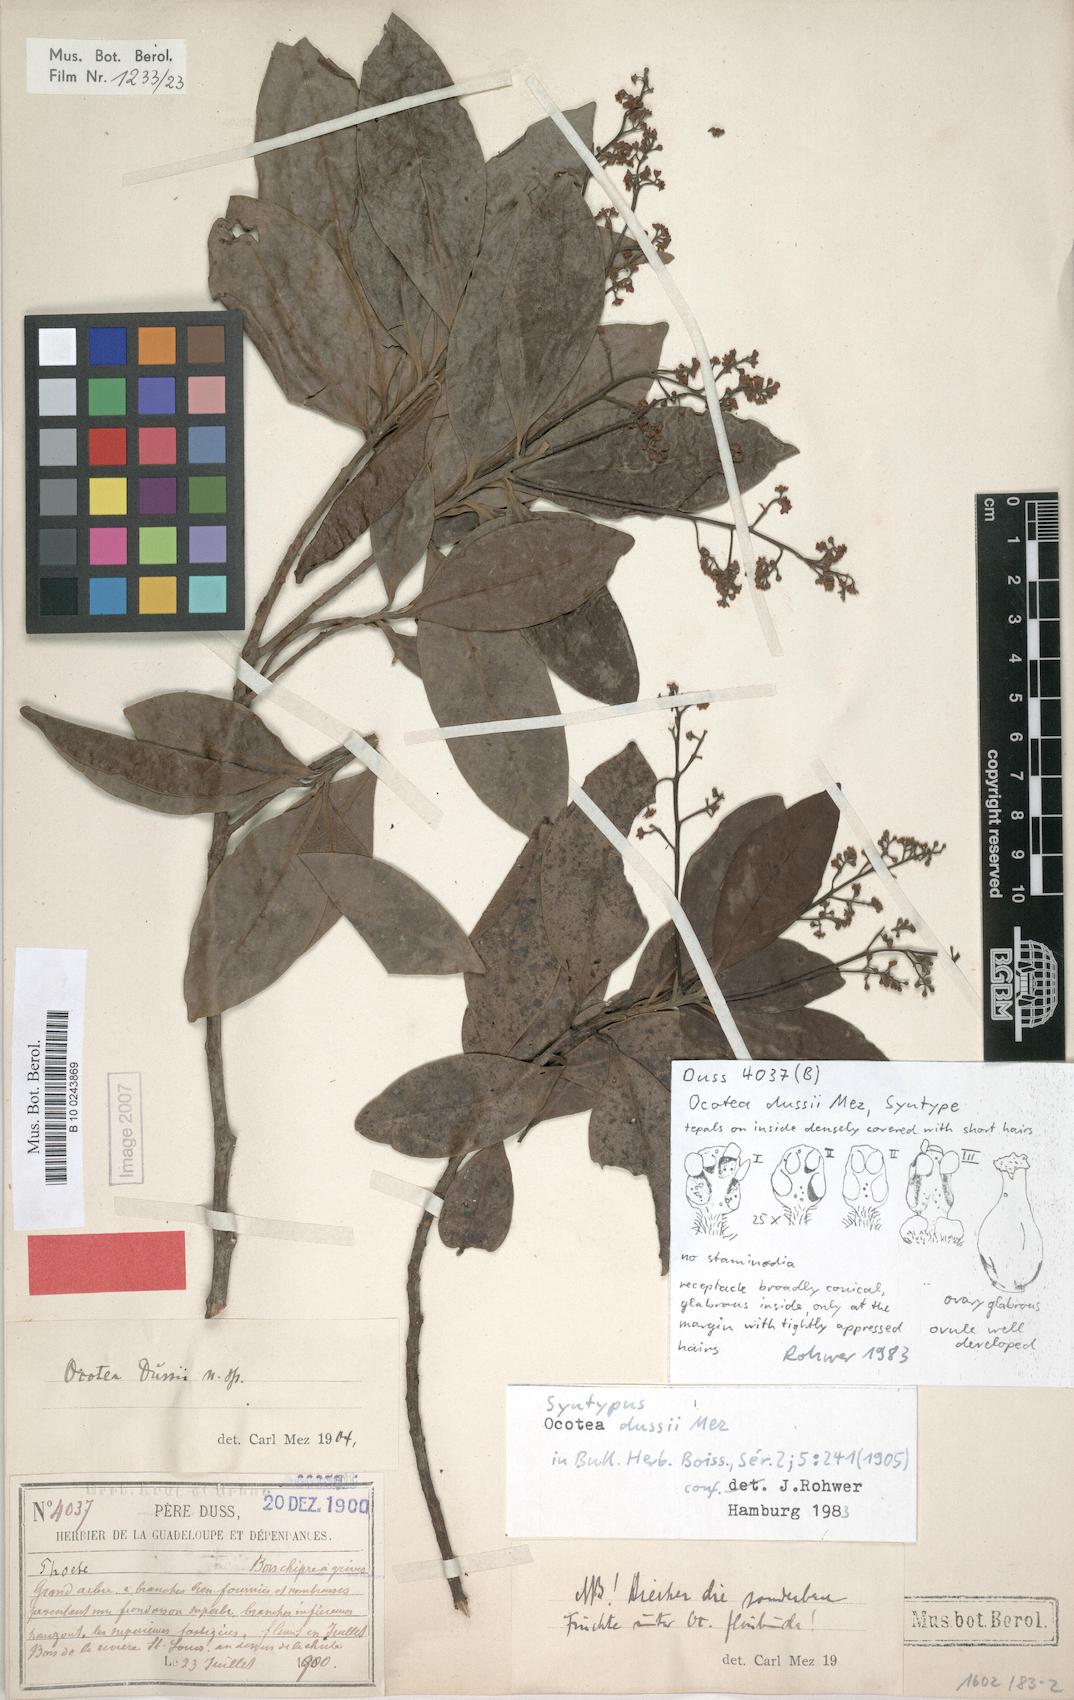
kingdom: Plantae
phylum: Tracheophyta
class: Magnoliopsida
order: Laurales
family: Lauraceae
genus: Ocotea
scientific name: Ocotea dussii
